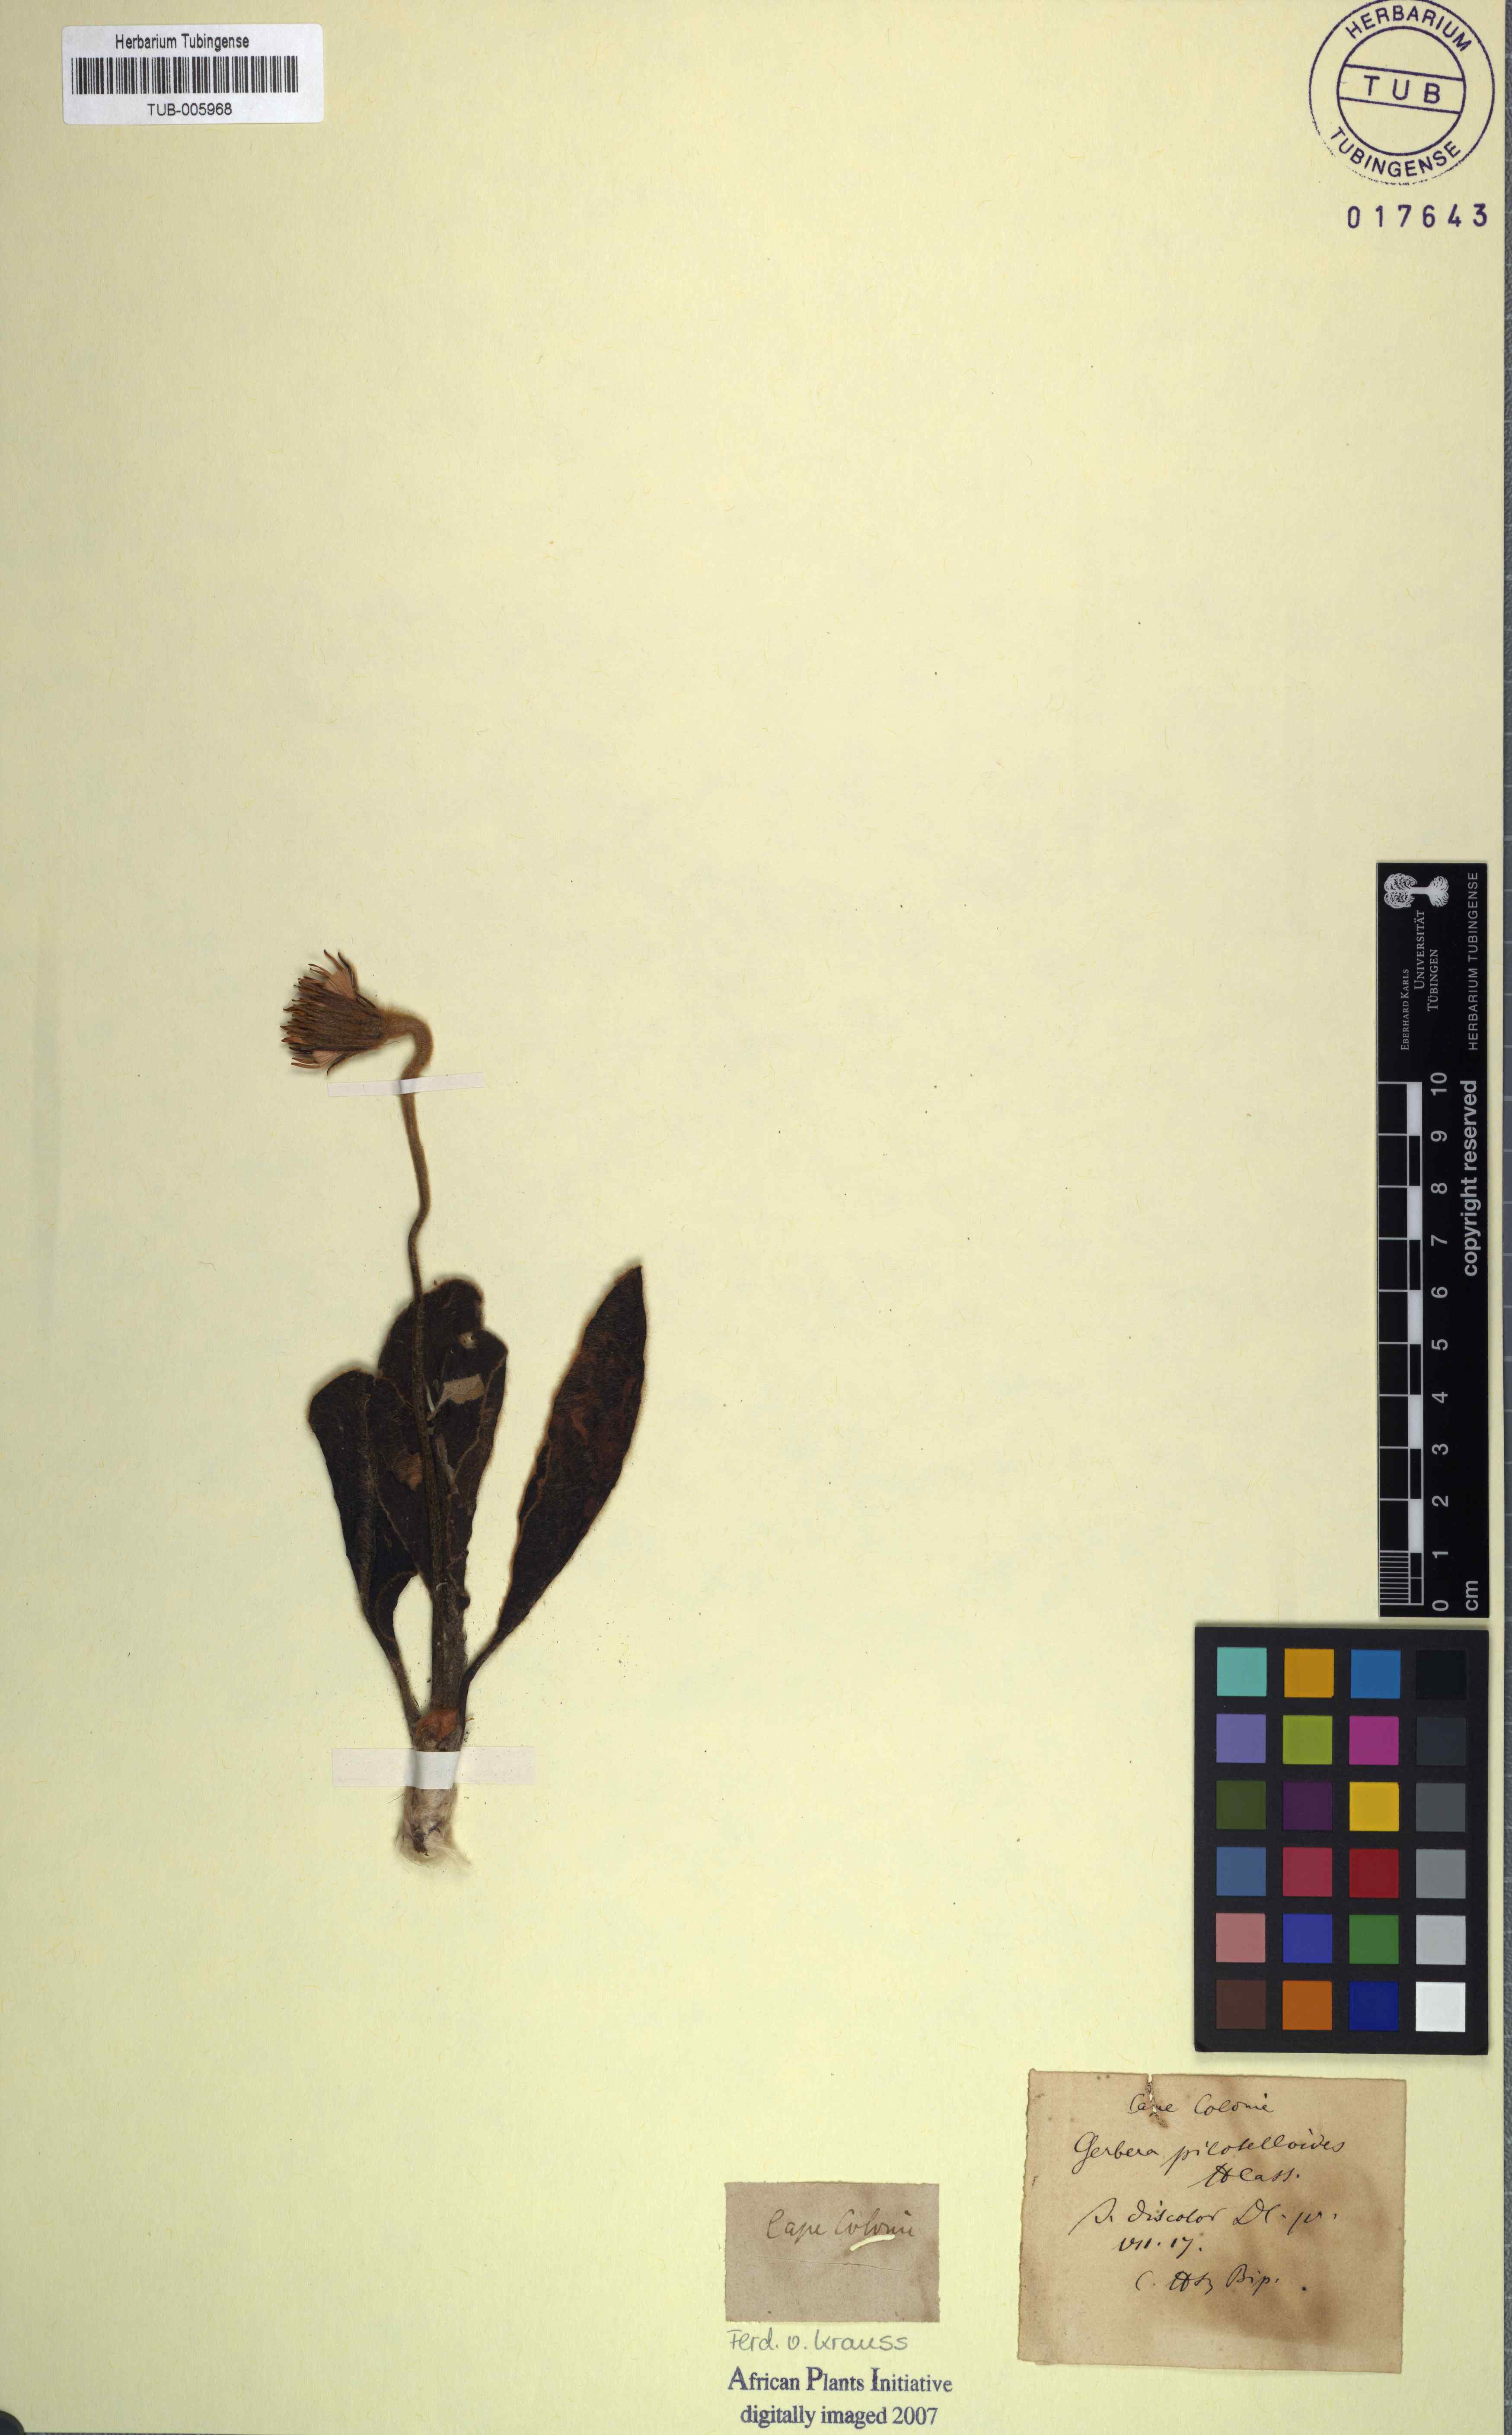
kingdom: Plantae
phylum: Tracheophyta
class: Magnoliopsida
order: Asterales
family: Asteraceae
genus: Piloselloides
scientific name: Piloselloides hirsuta
